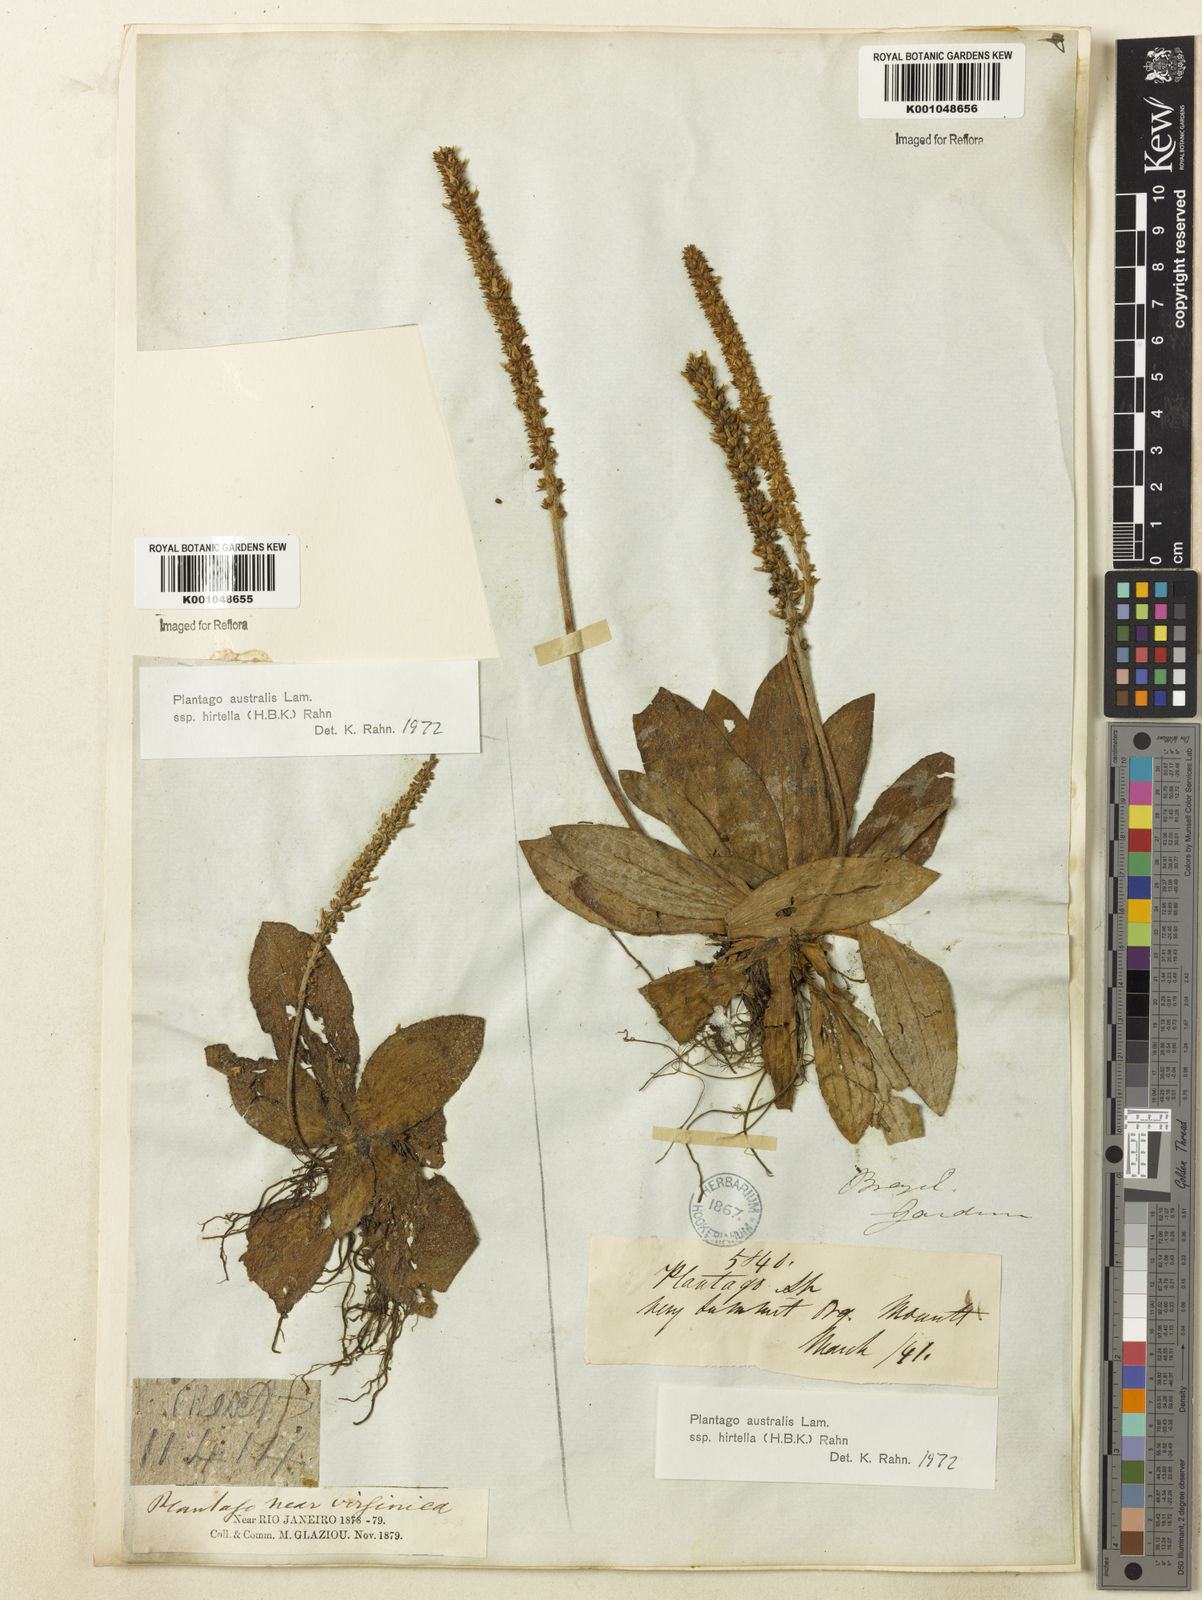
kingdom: Plantae
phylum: Tracheophyta
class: Magnoliopsida
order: Lamiales
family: Plantaginaceae
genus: Plantago
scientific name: Plantago australis
